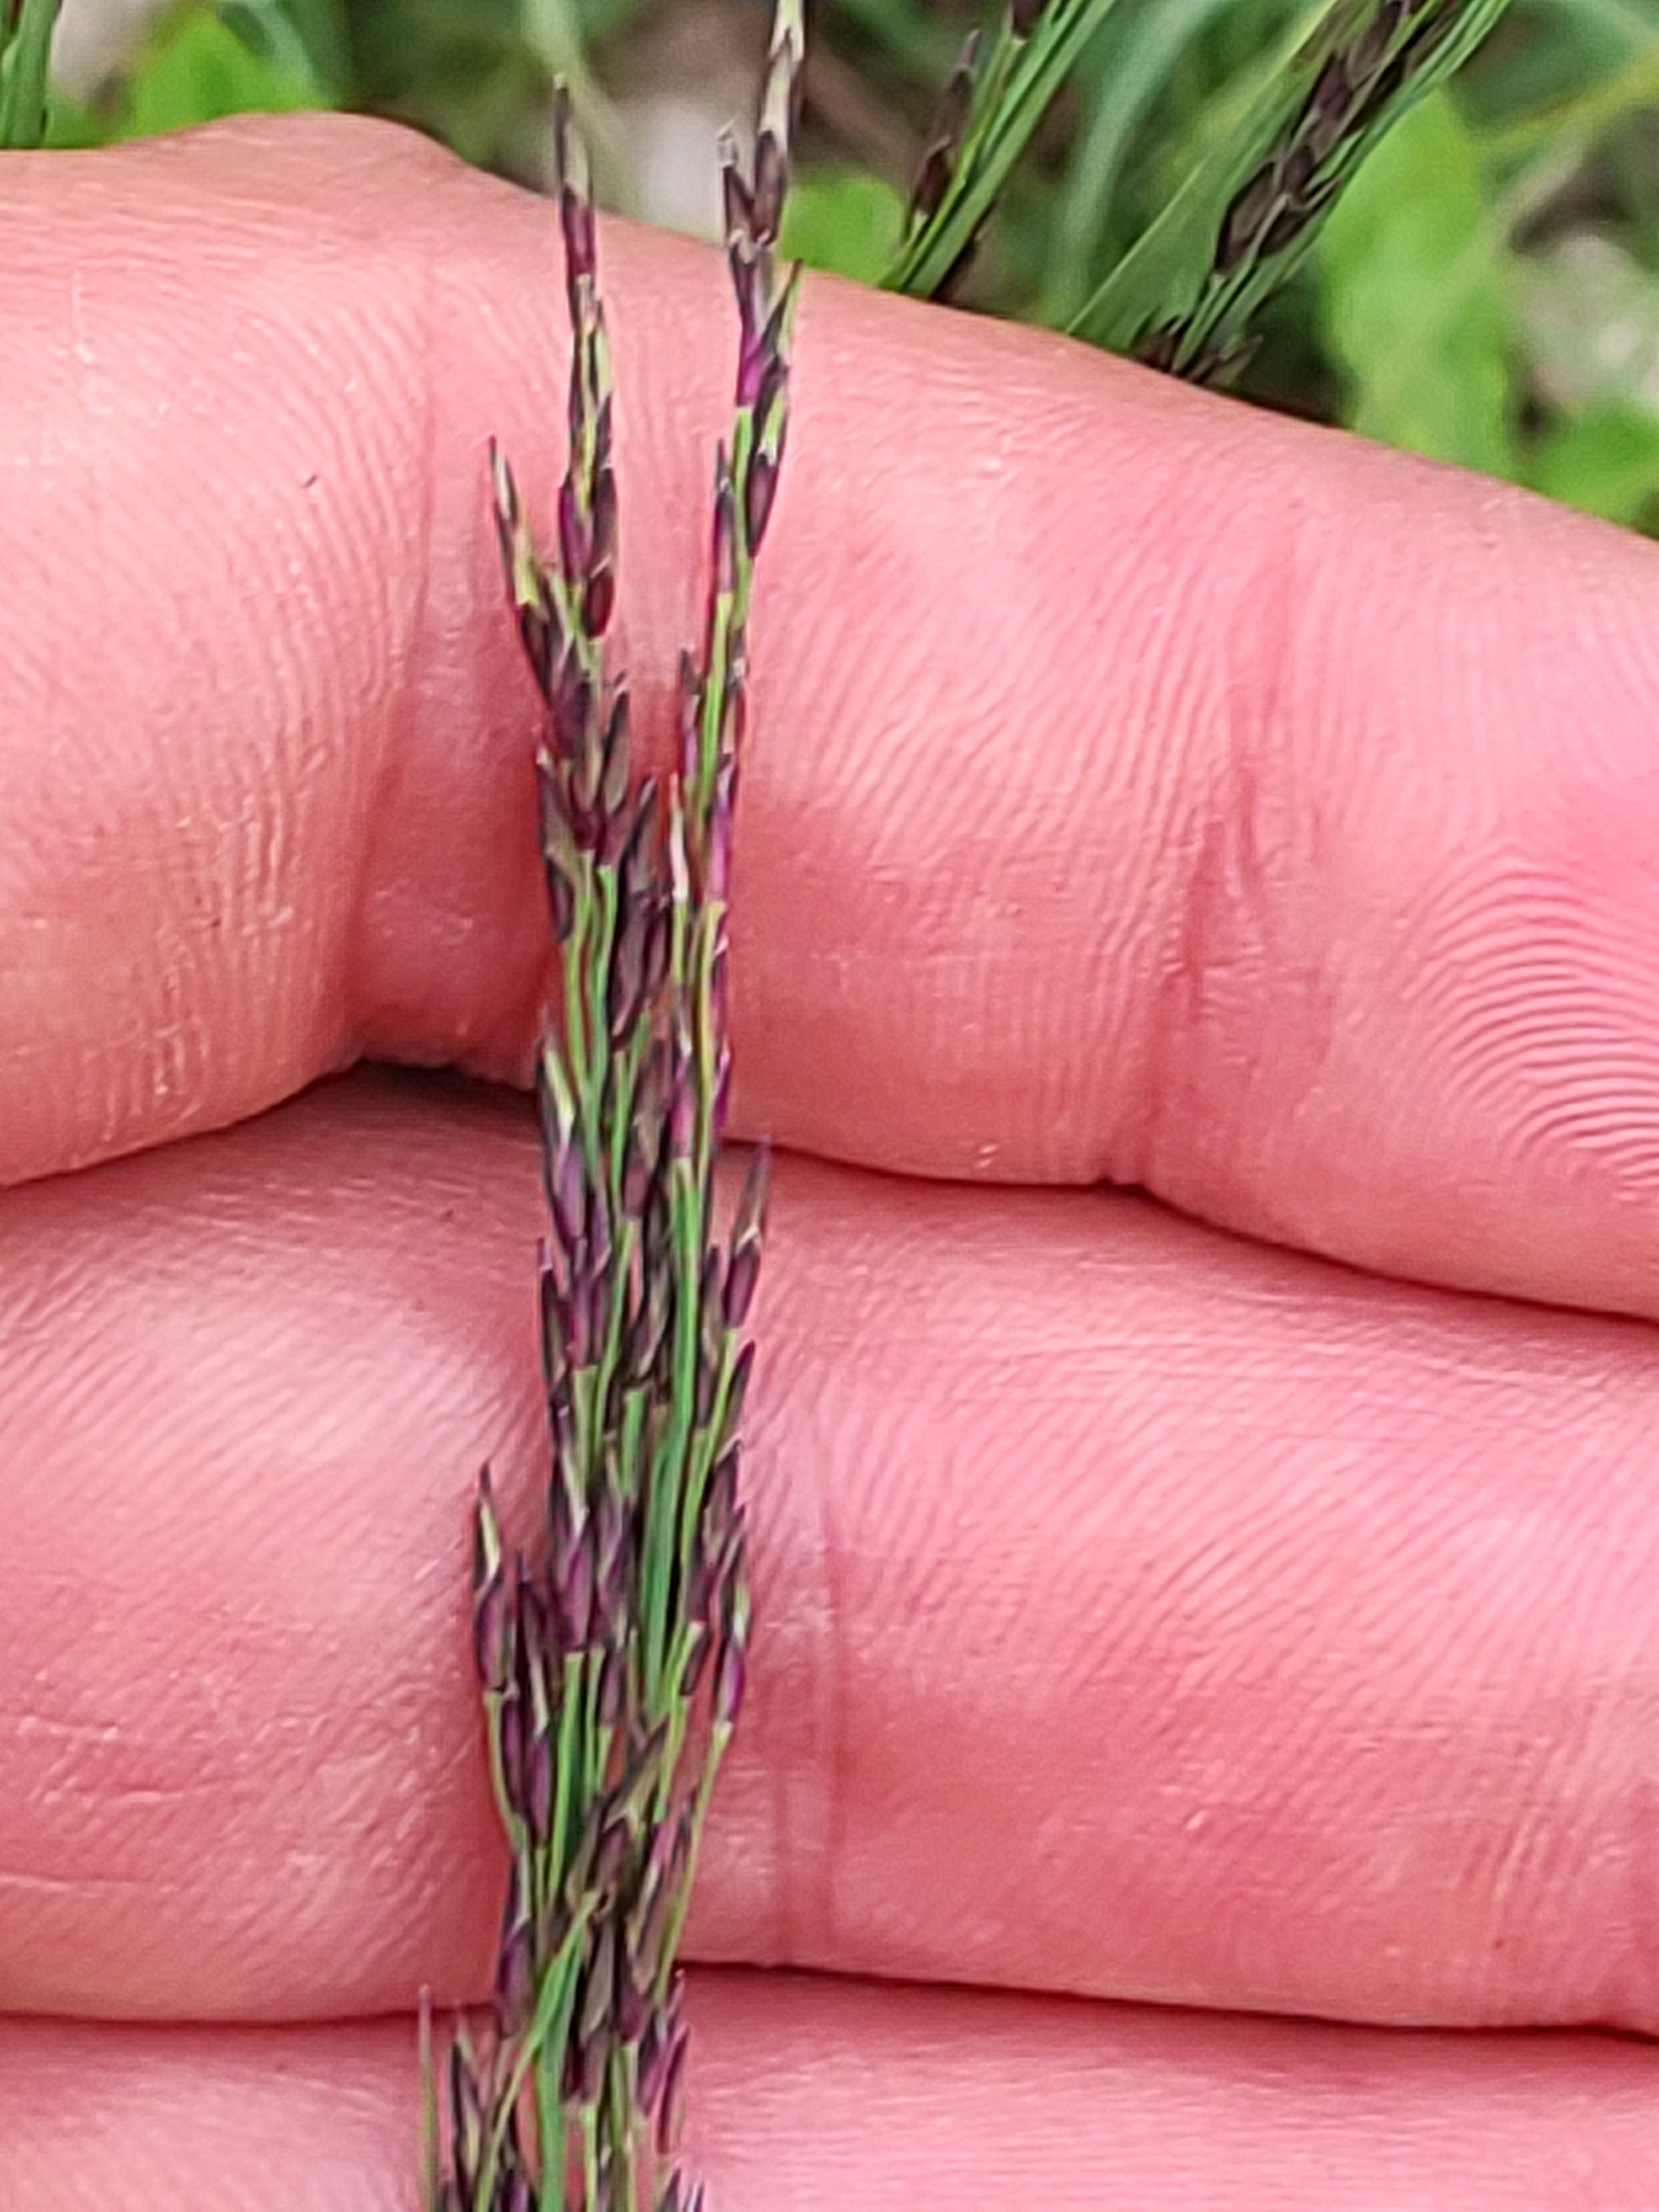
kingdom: Plantae
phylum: Tracheophyta
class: Liliopsida
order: Poales
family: Poaceae
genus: Molinia
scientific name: Molinia caerulea
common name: Blåtop
